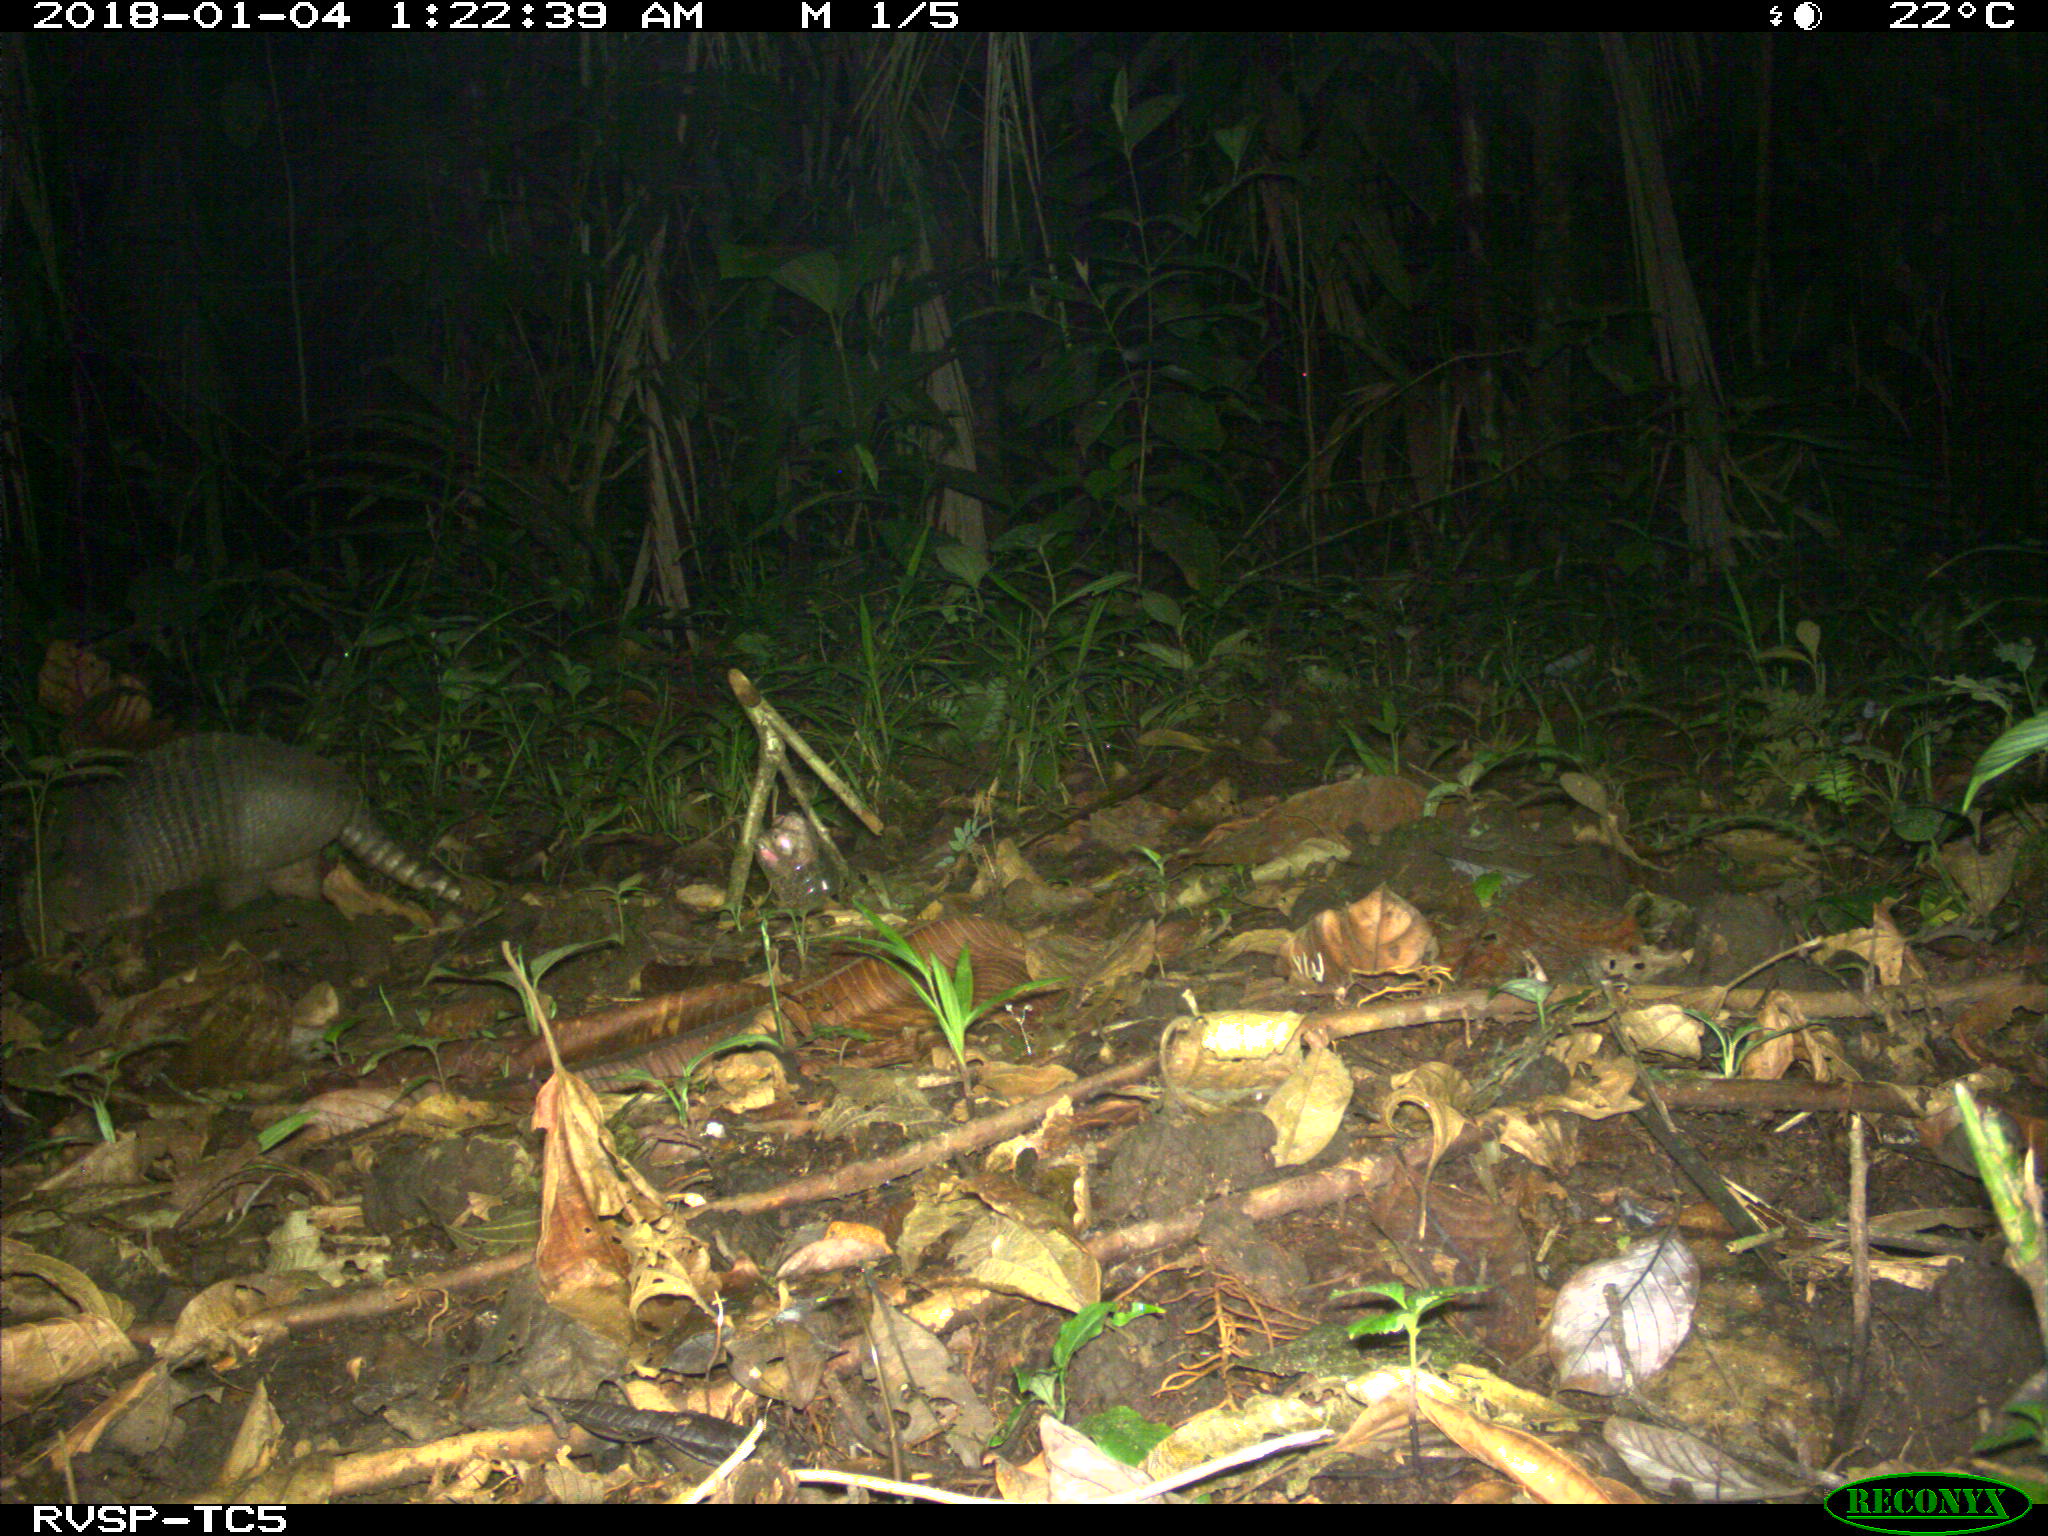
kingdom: Animalia
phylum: Chordata
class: Mammalia
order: Cingulata
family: Dasypodidae
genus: Dasypus
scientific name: Dasypus novemcinctus
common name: Nine-banded armadillo
